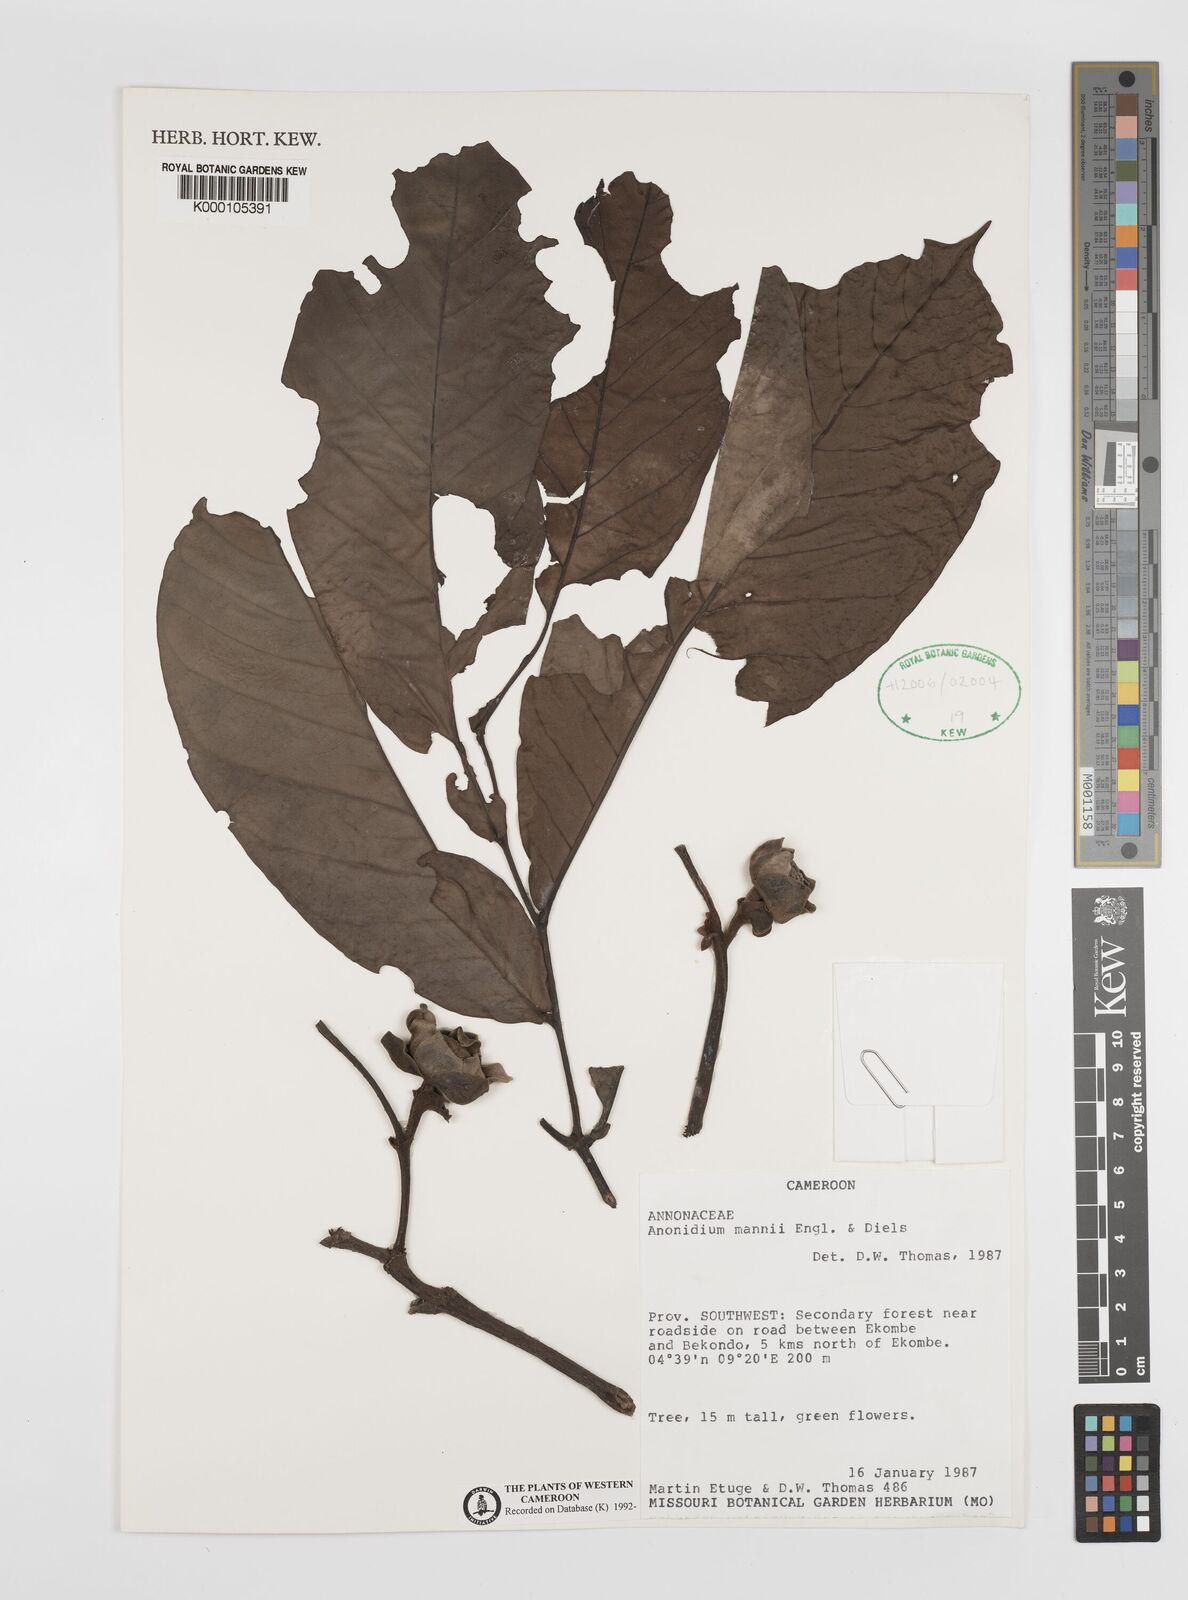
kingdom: Plantae
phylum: Tracheophyta
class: Magnoliopsida
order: Magnoliales
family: Annonaceae
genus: Anonidium
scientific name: Anonidium mannii
